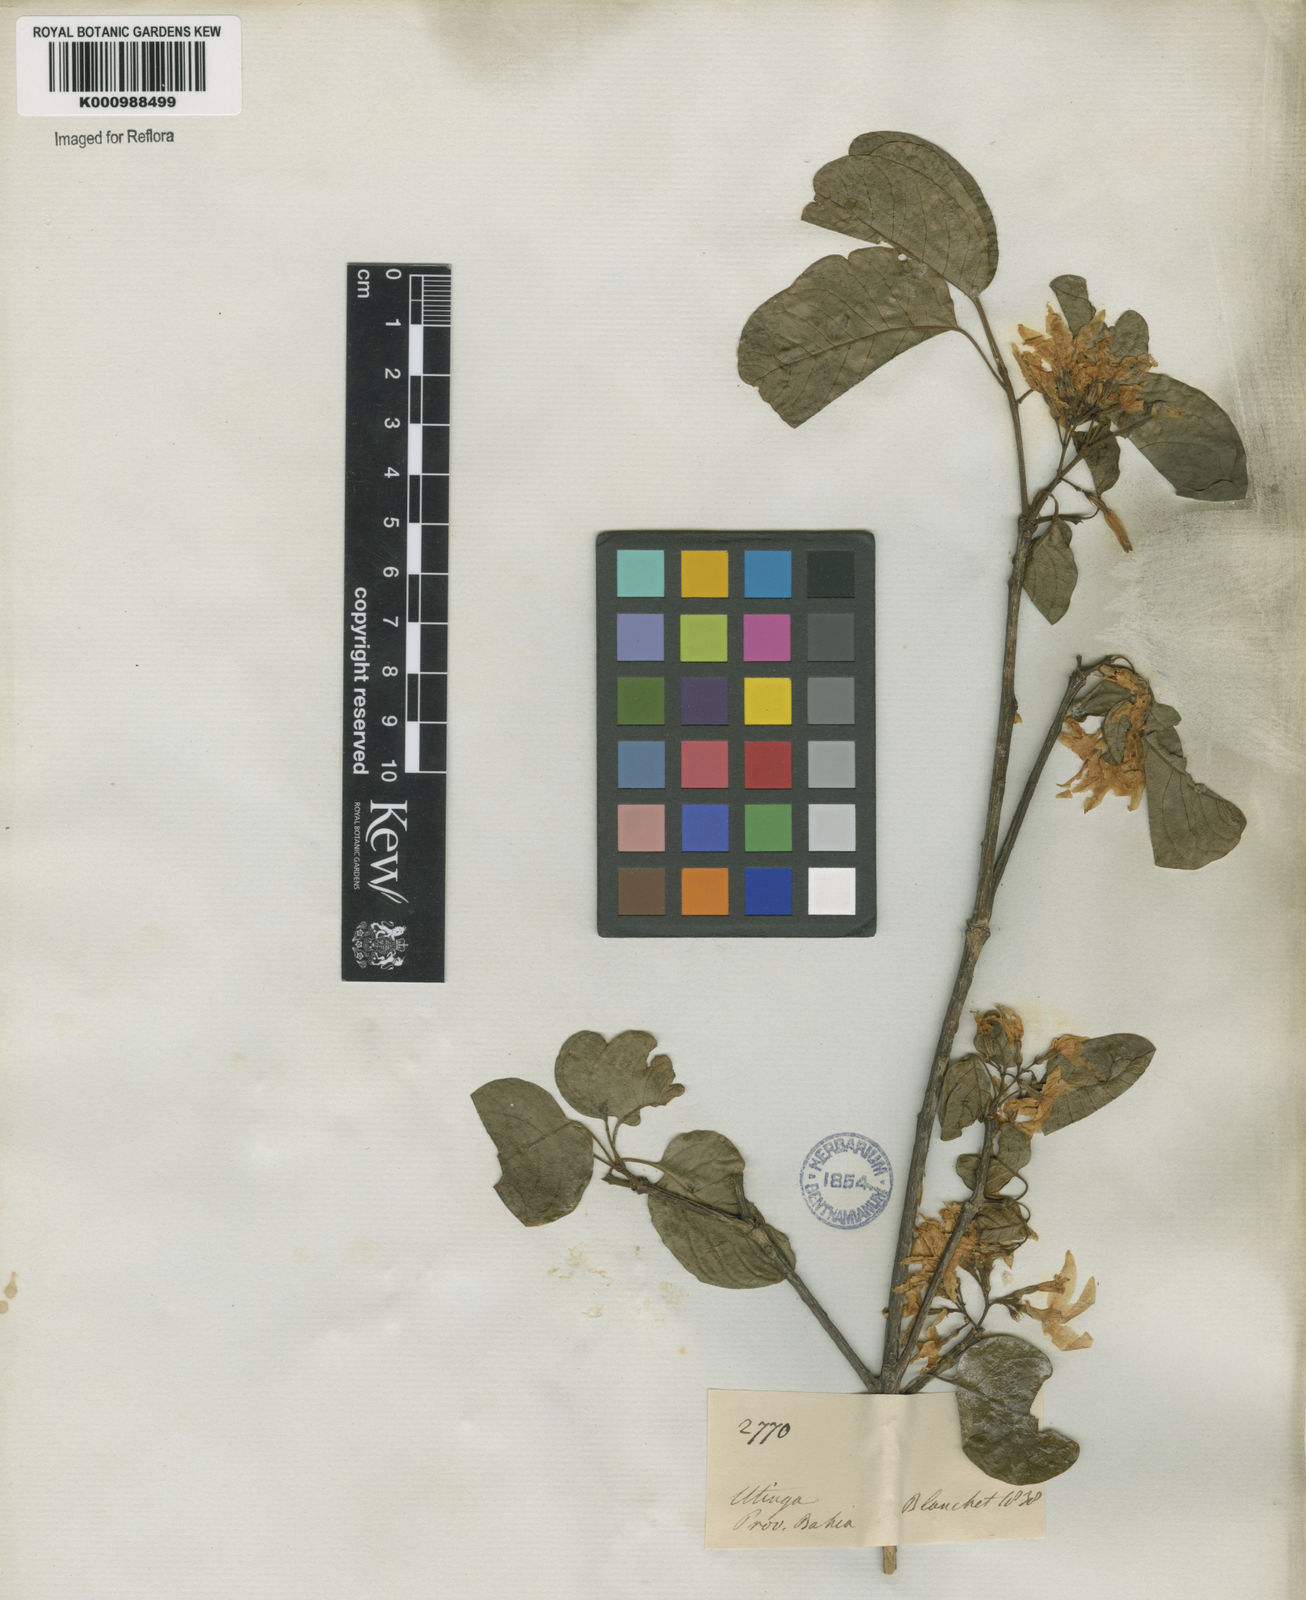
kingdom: Plantae
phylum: Tracheophyta
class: Magnoliopsida
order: Gentianales
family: Apocynaceae
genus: Aspidosperma
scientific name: Aspidosperma pyrifolium
